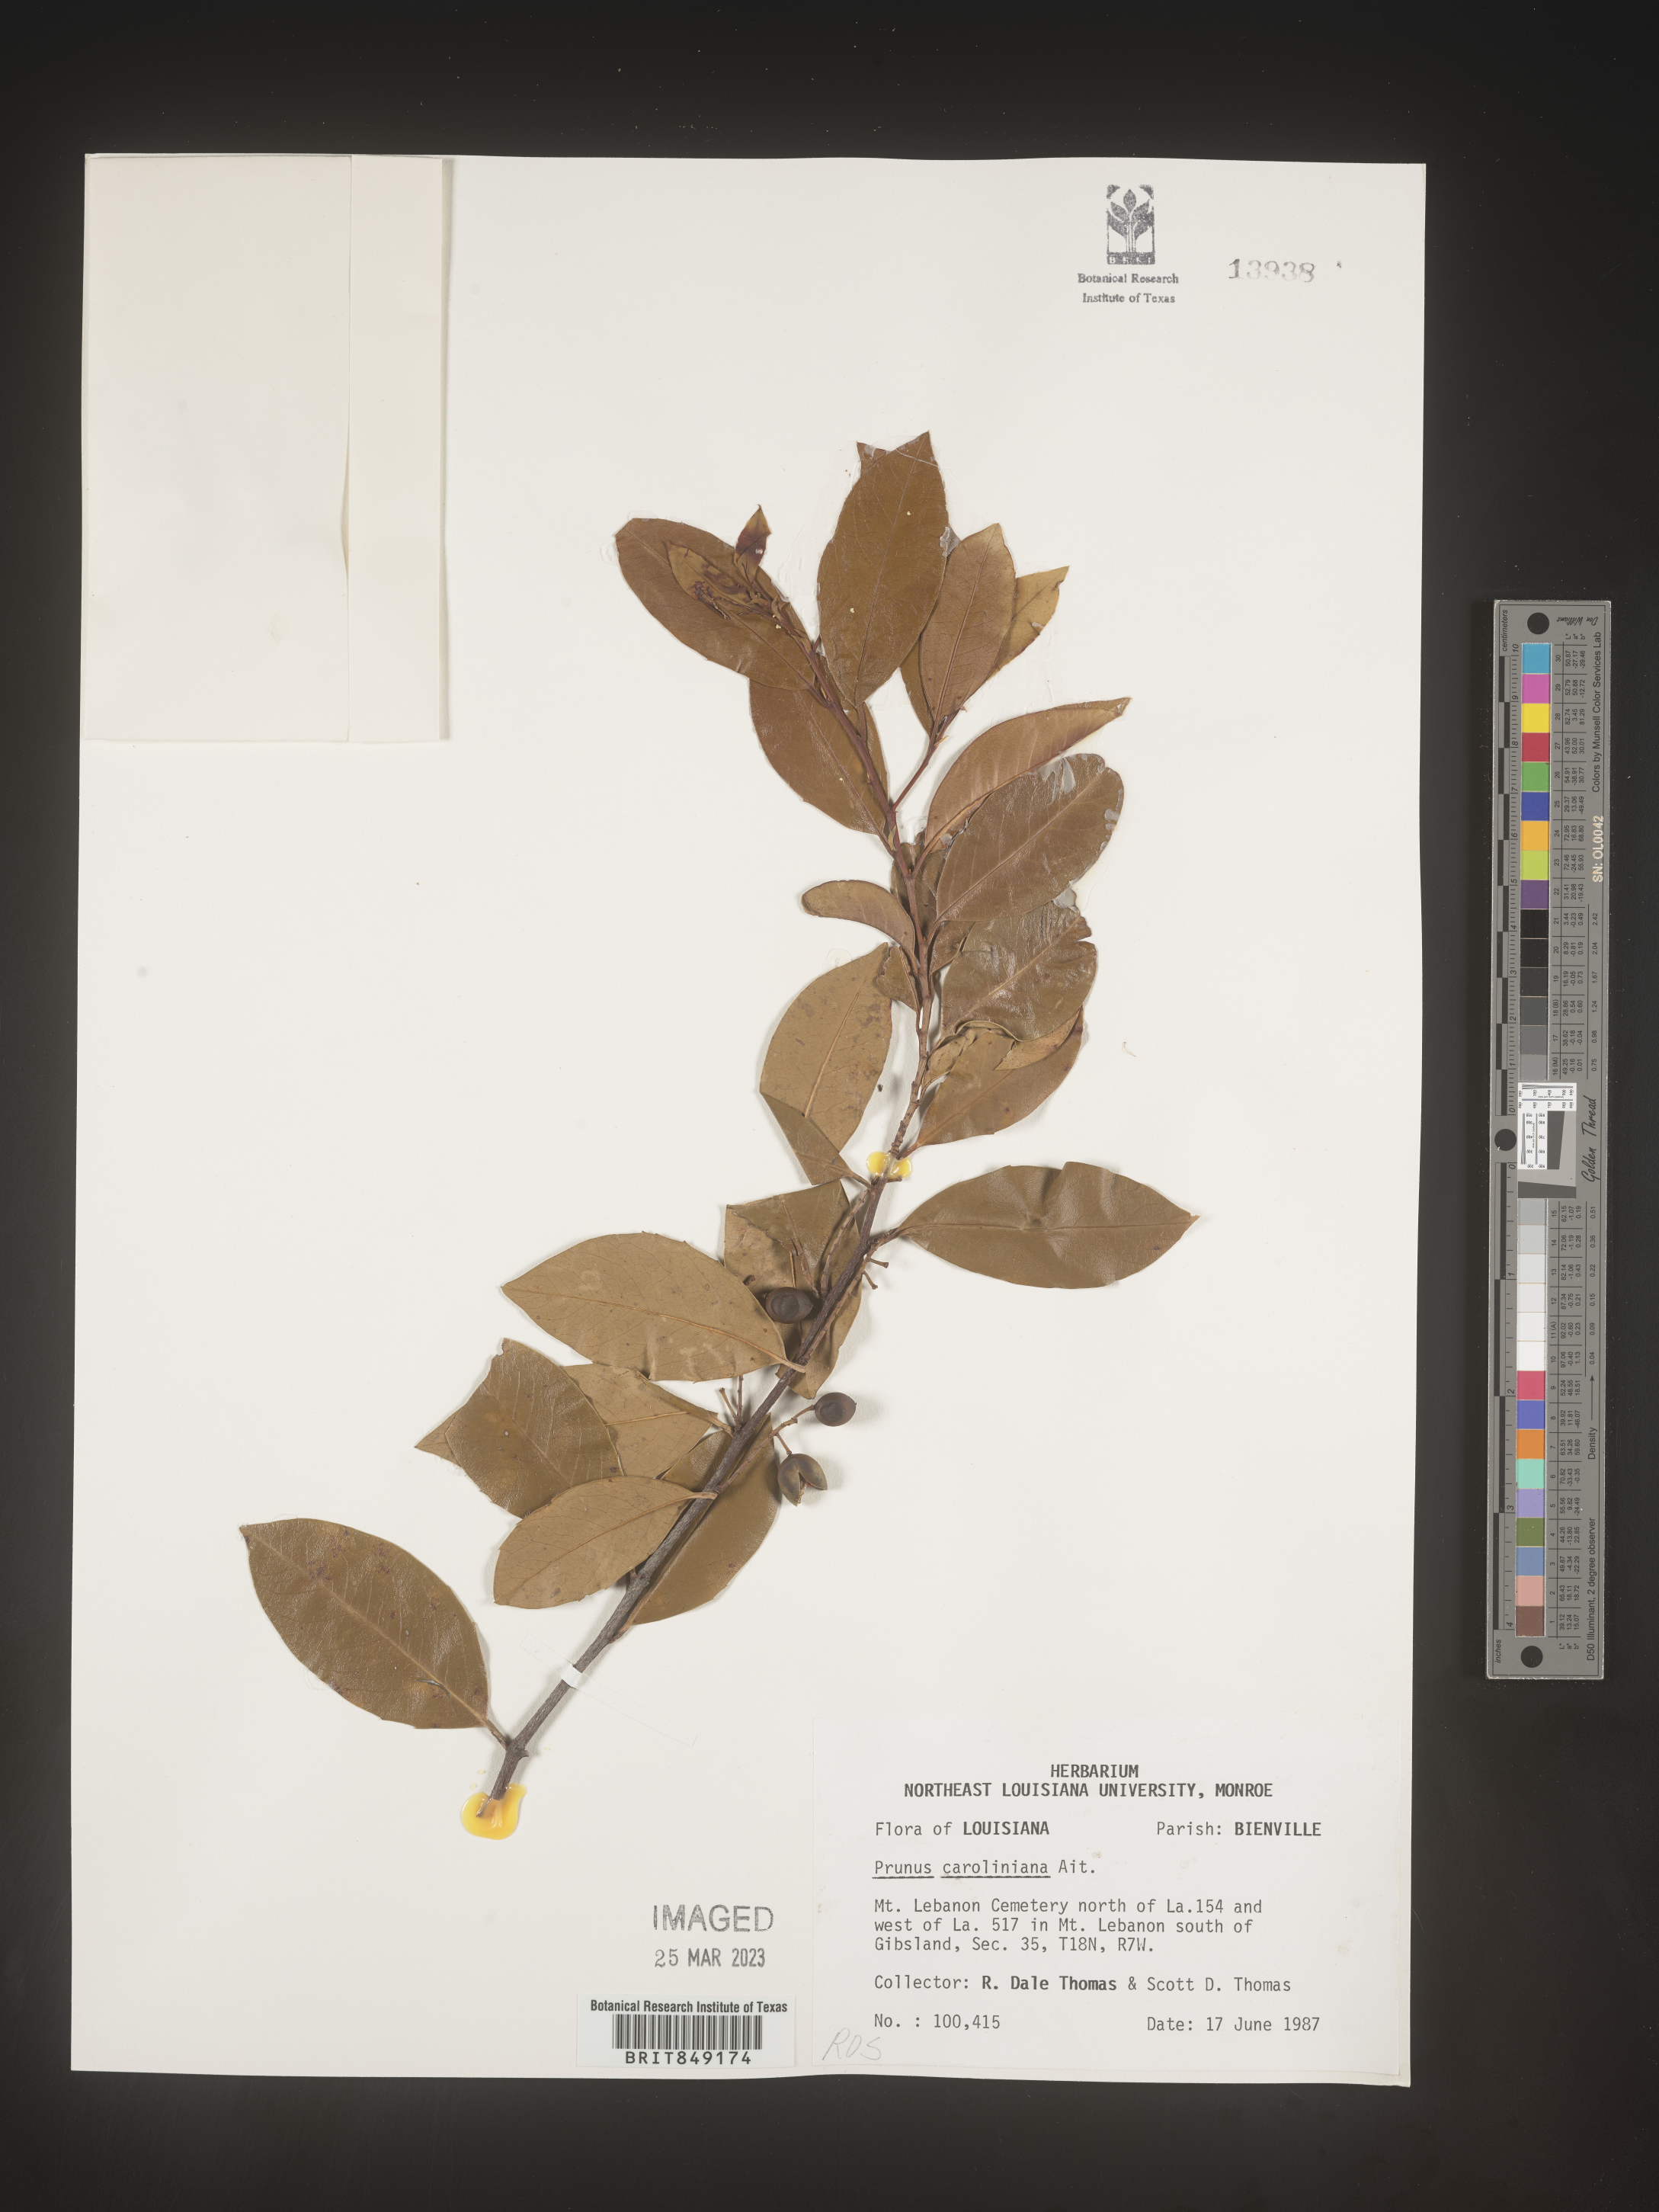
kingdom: Plantae
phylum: Tracheophyta
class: Magnoliopsida
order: Rosales
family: Rosaceae
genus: Prunus
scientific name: Prunus caroliniana
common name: Carolina laurel cherry
